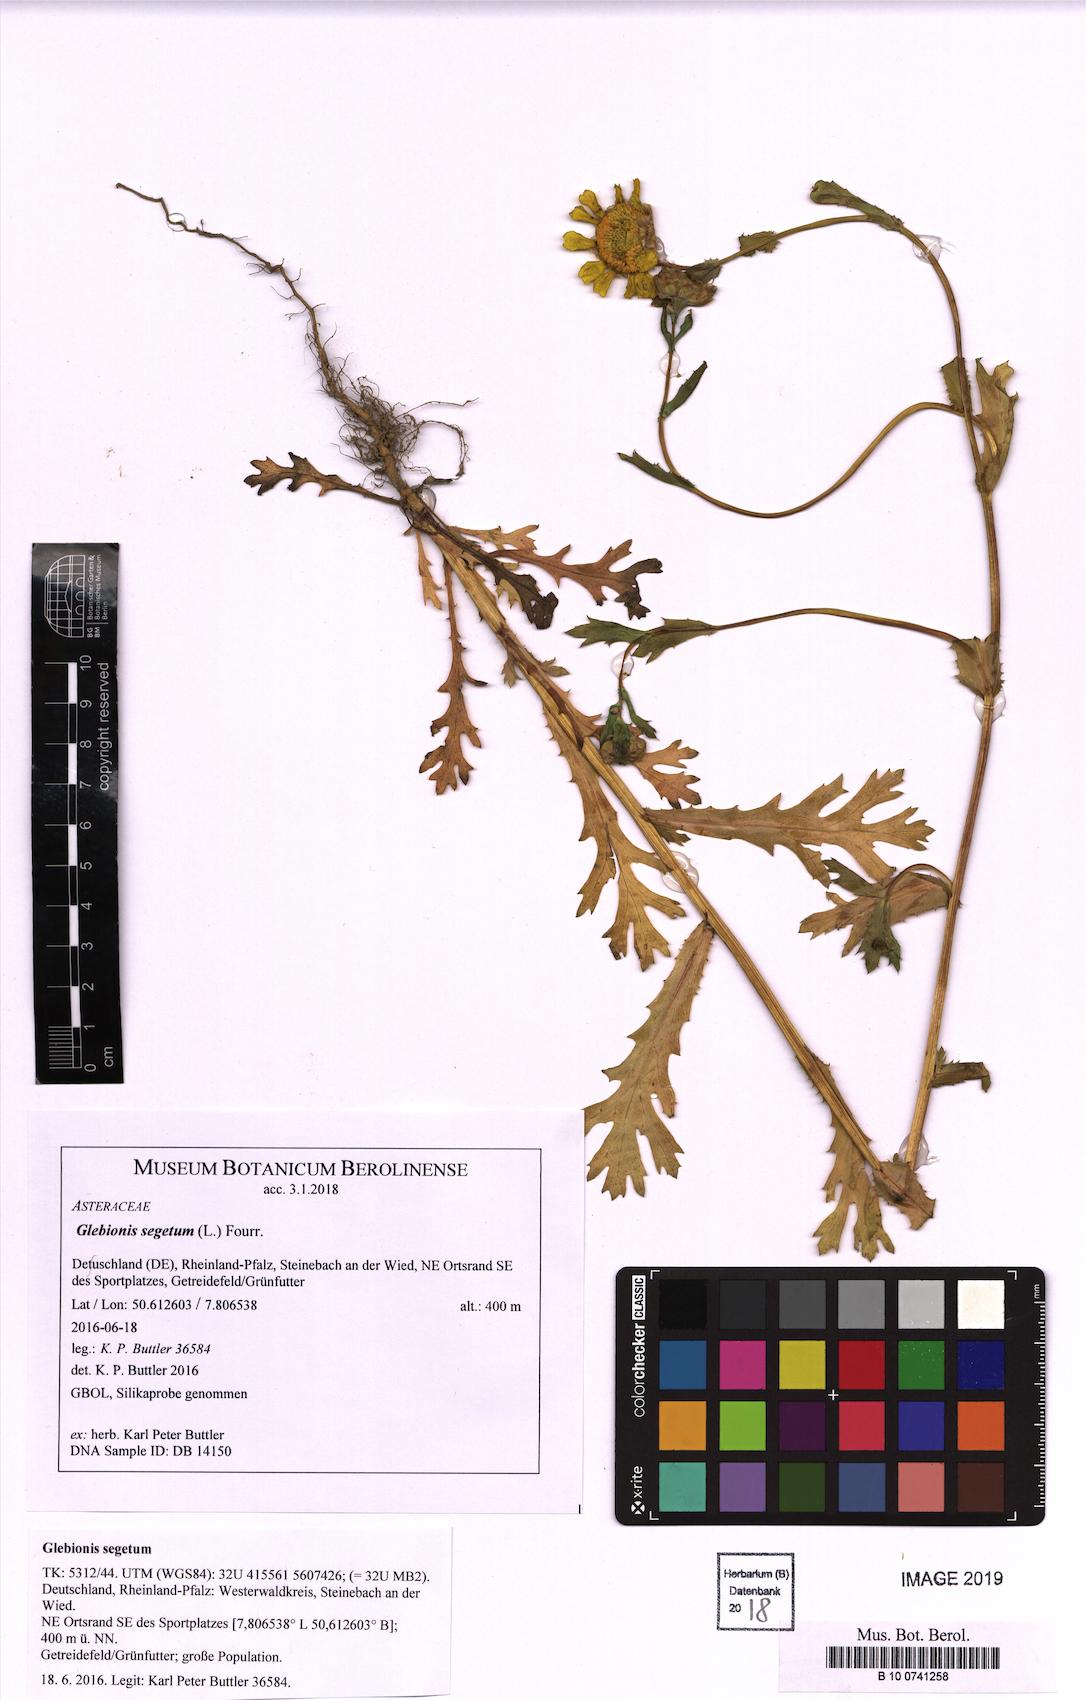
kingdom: Plantae
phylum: Tracheophyta
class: Magnoliopsida
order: Asterales
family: Asteraceae
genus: Glebionis
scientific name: Glebionis segetum
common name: Corndaisy
